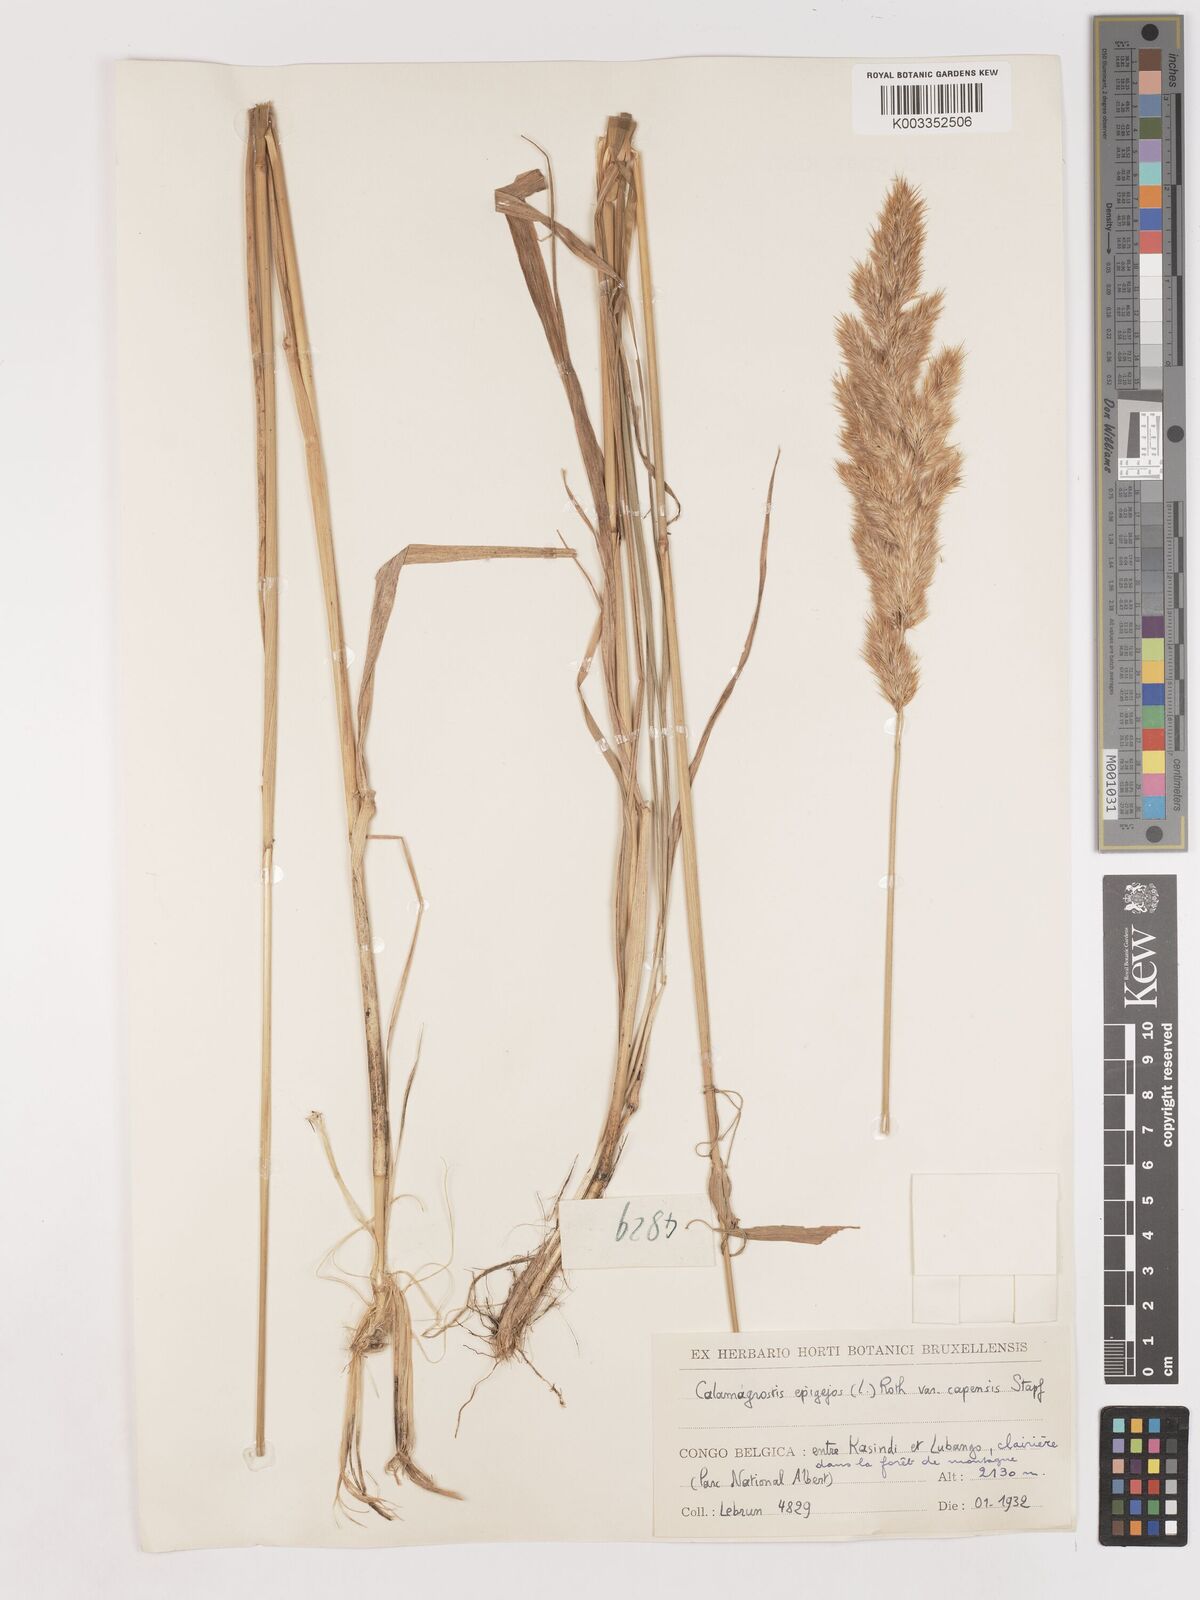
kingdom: Plantae
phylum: Tracheophyta
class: Liliopsida
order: Poales
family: Poaceae
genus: Calamagrostis
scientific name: Calamagrostis epigejos
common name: Wood small-reed
